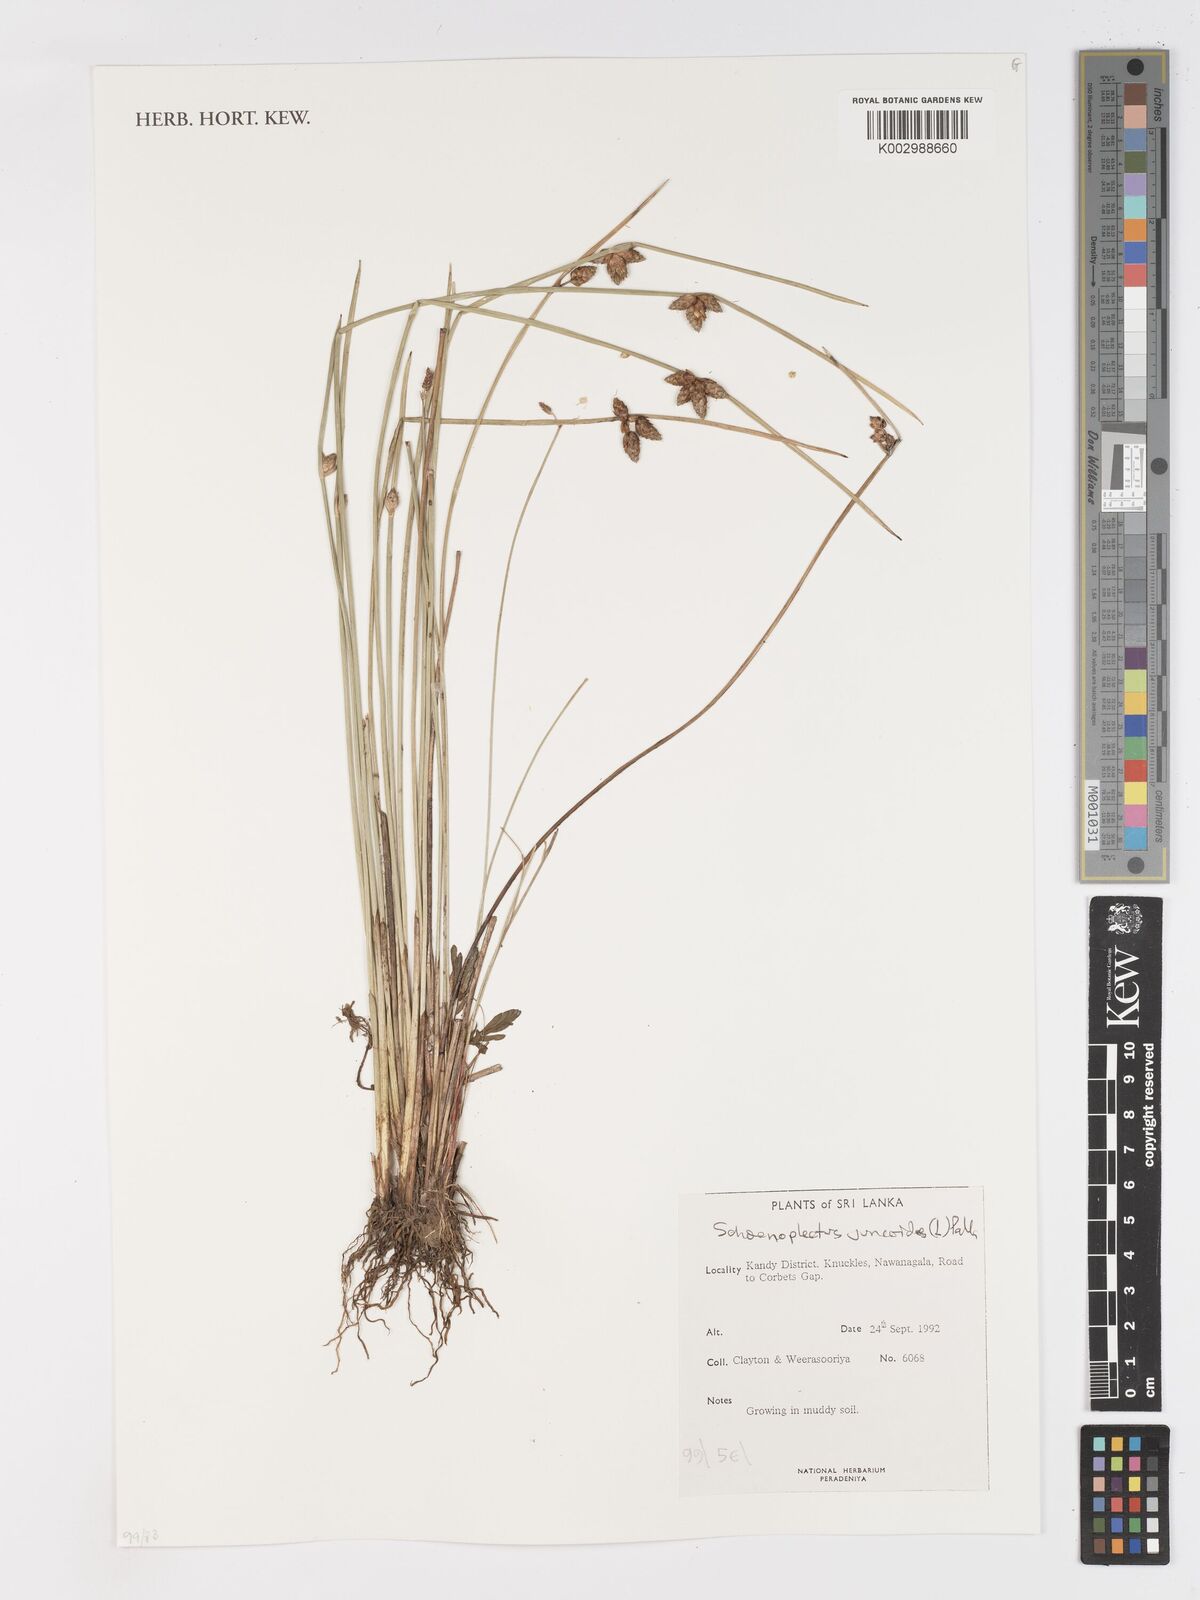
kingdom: Plantae
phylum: Tracheophyta
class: Liliopsida
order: Poales
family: Cyperaceae
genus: Schoenoplectiella
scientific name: Schoenoplectiella juncoides
